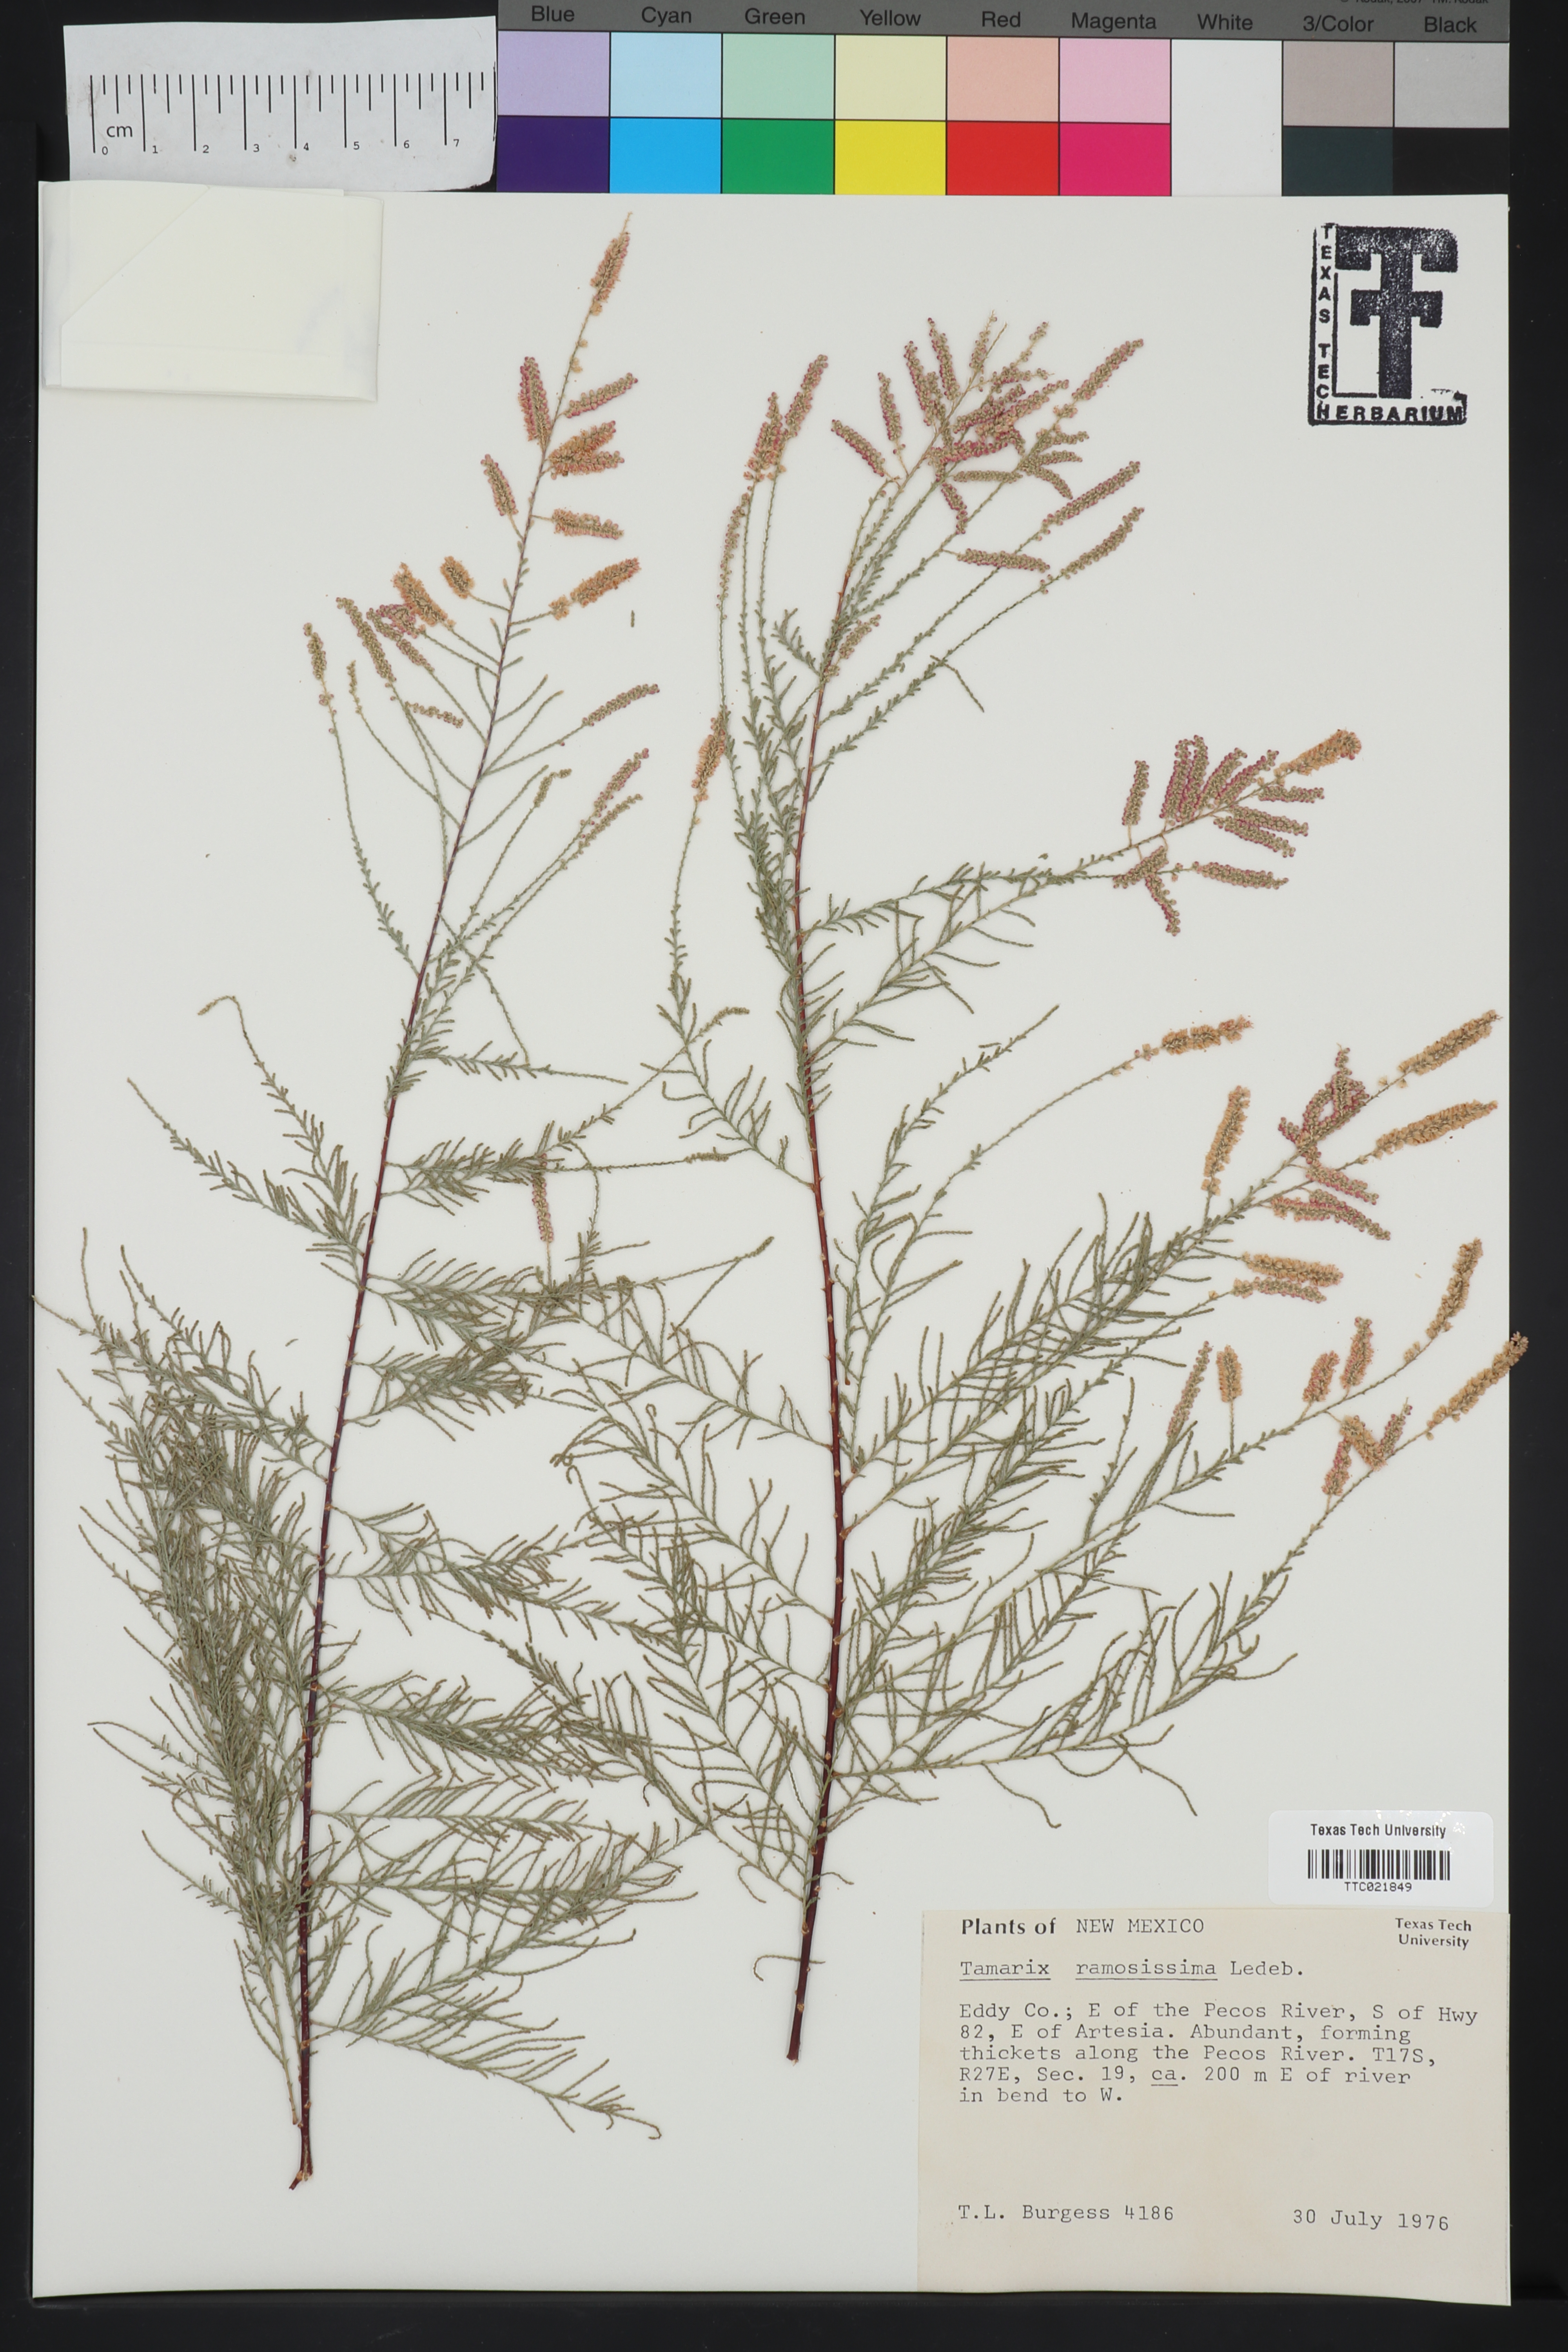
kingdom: Plantae
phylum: Tracheophyta
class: Magnoliopsida
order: Caryophyllales
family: Tamaricaceae
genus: Tamarix
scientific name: Tamarix ramosissima
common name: Pink tamarisk
